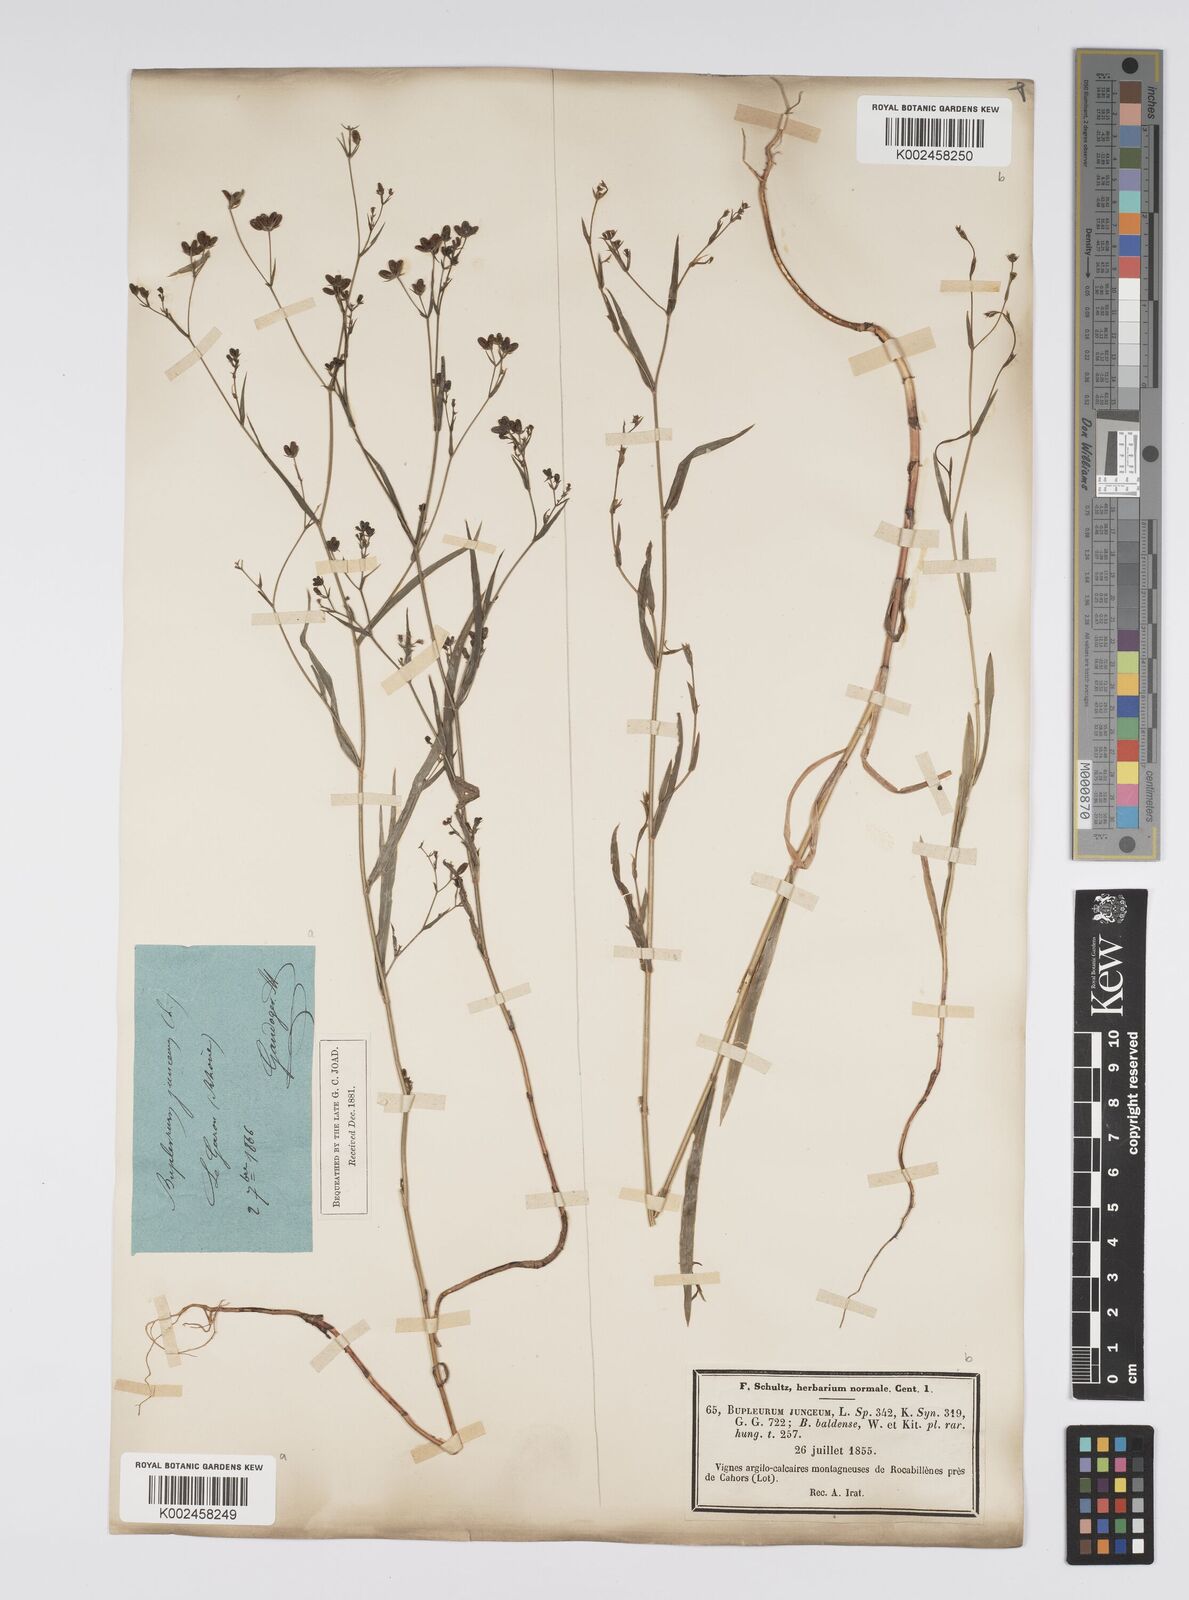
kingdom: Plantae
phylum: Tracheophyta
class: Magnoliopsida
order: Apiales
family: Apiaceae
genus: Bupleurum
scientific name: Bupleurum praealtum
